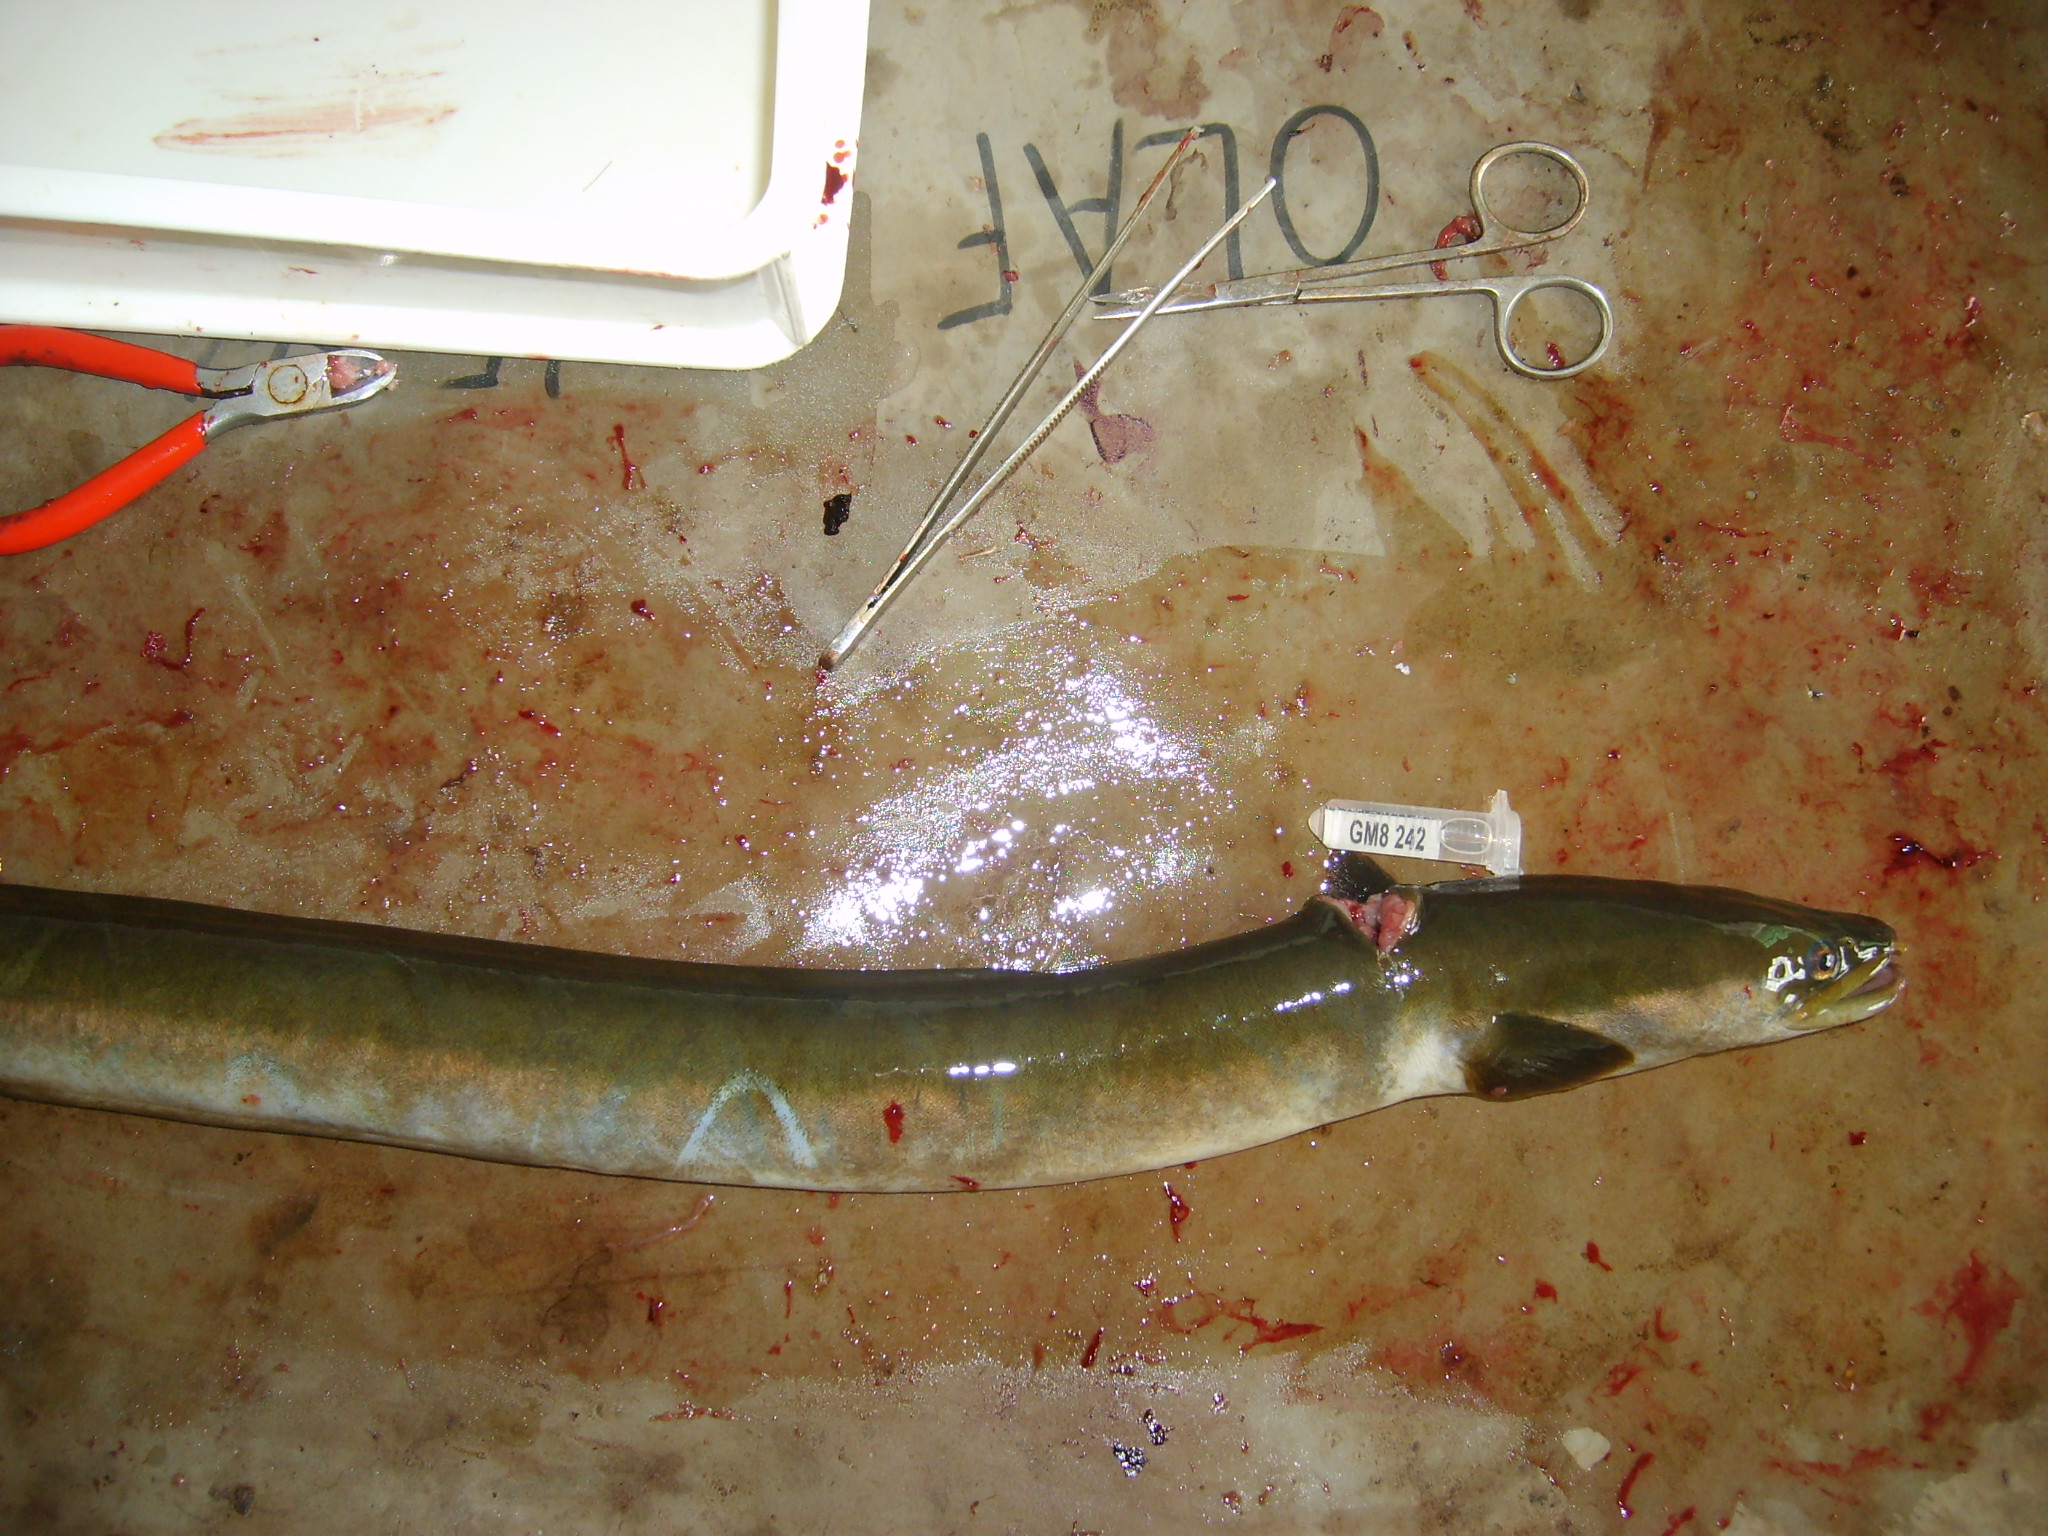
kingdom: Animalia
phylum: Chordata
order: Anguilliformes
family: Anguillidae
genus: Anguilla
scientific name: Anguilla mossambica
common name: African longfin eel
